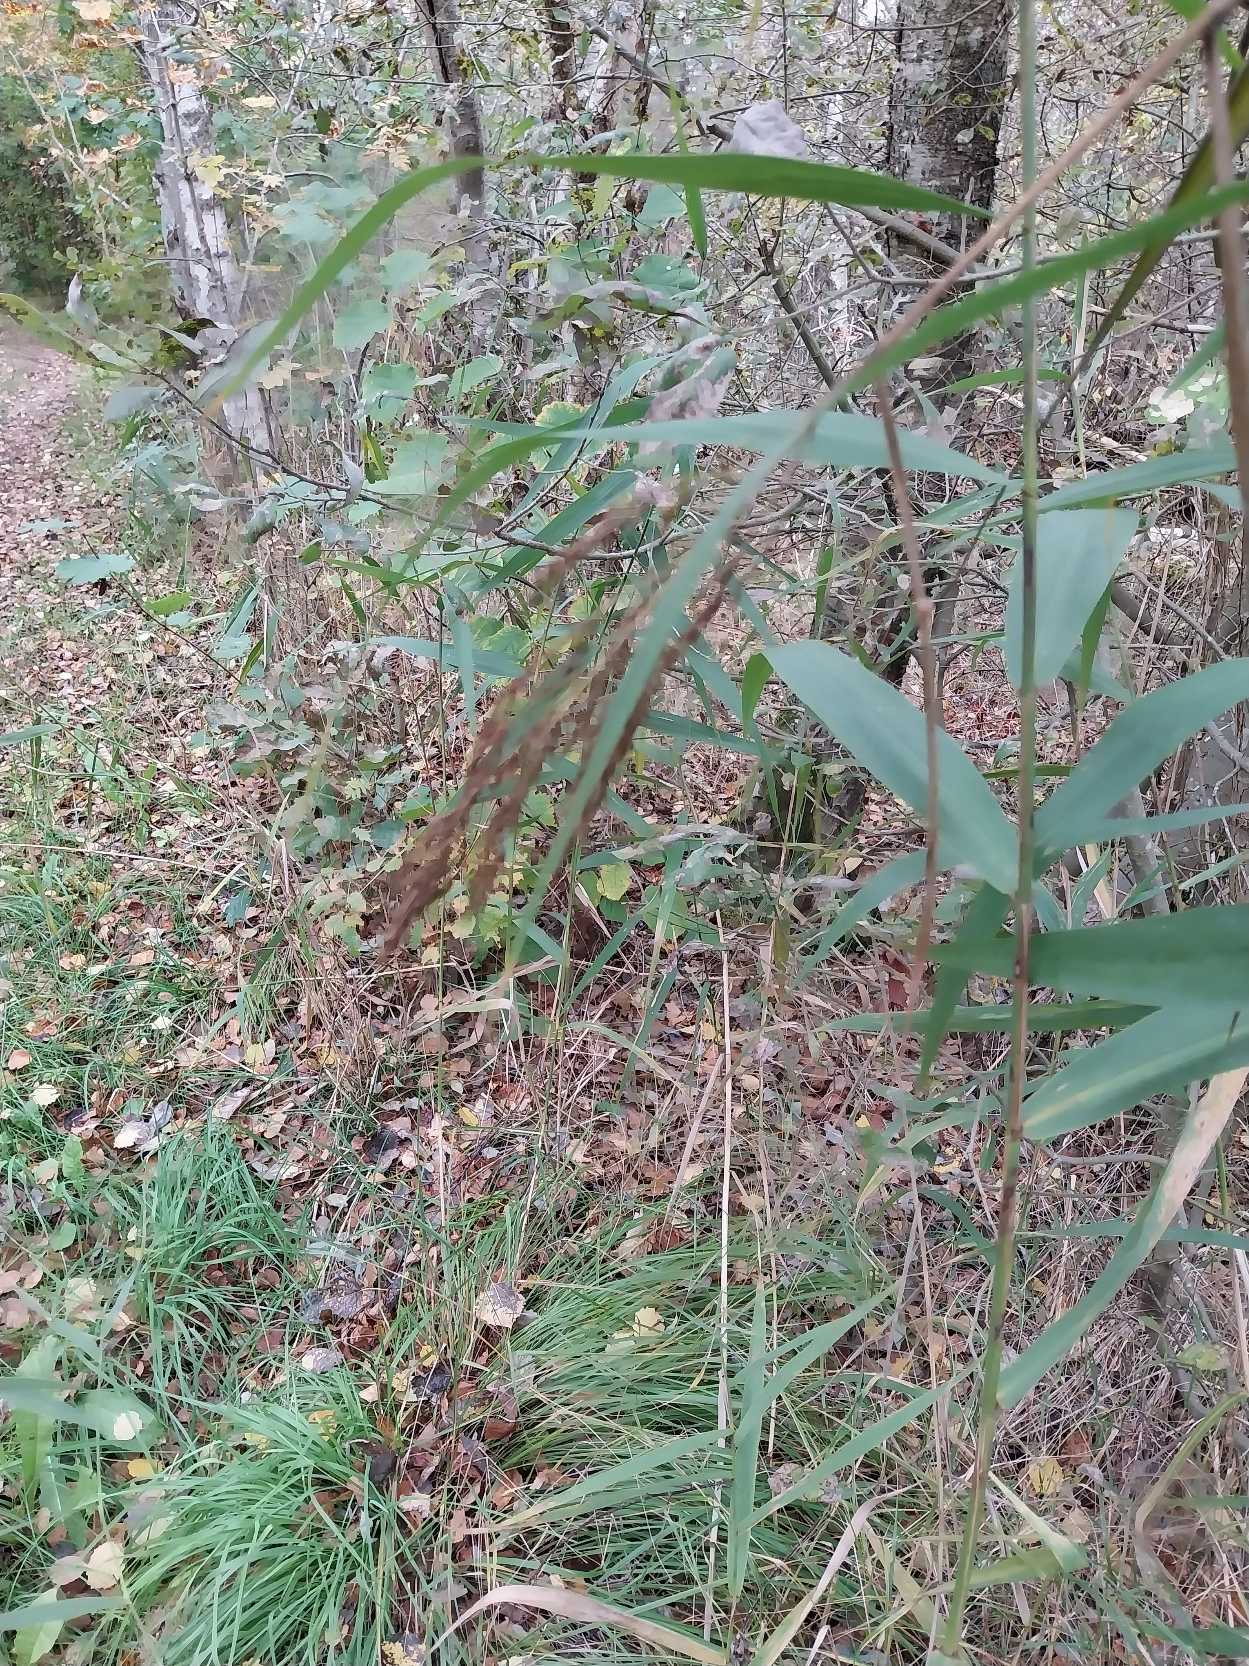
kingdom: Plantae
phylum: Tracheophyta
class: Liliopsida
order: Poales
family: Poaceae
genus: Phragmites
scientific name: Phragmites australis
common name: Tagrør
